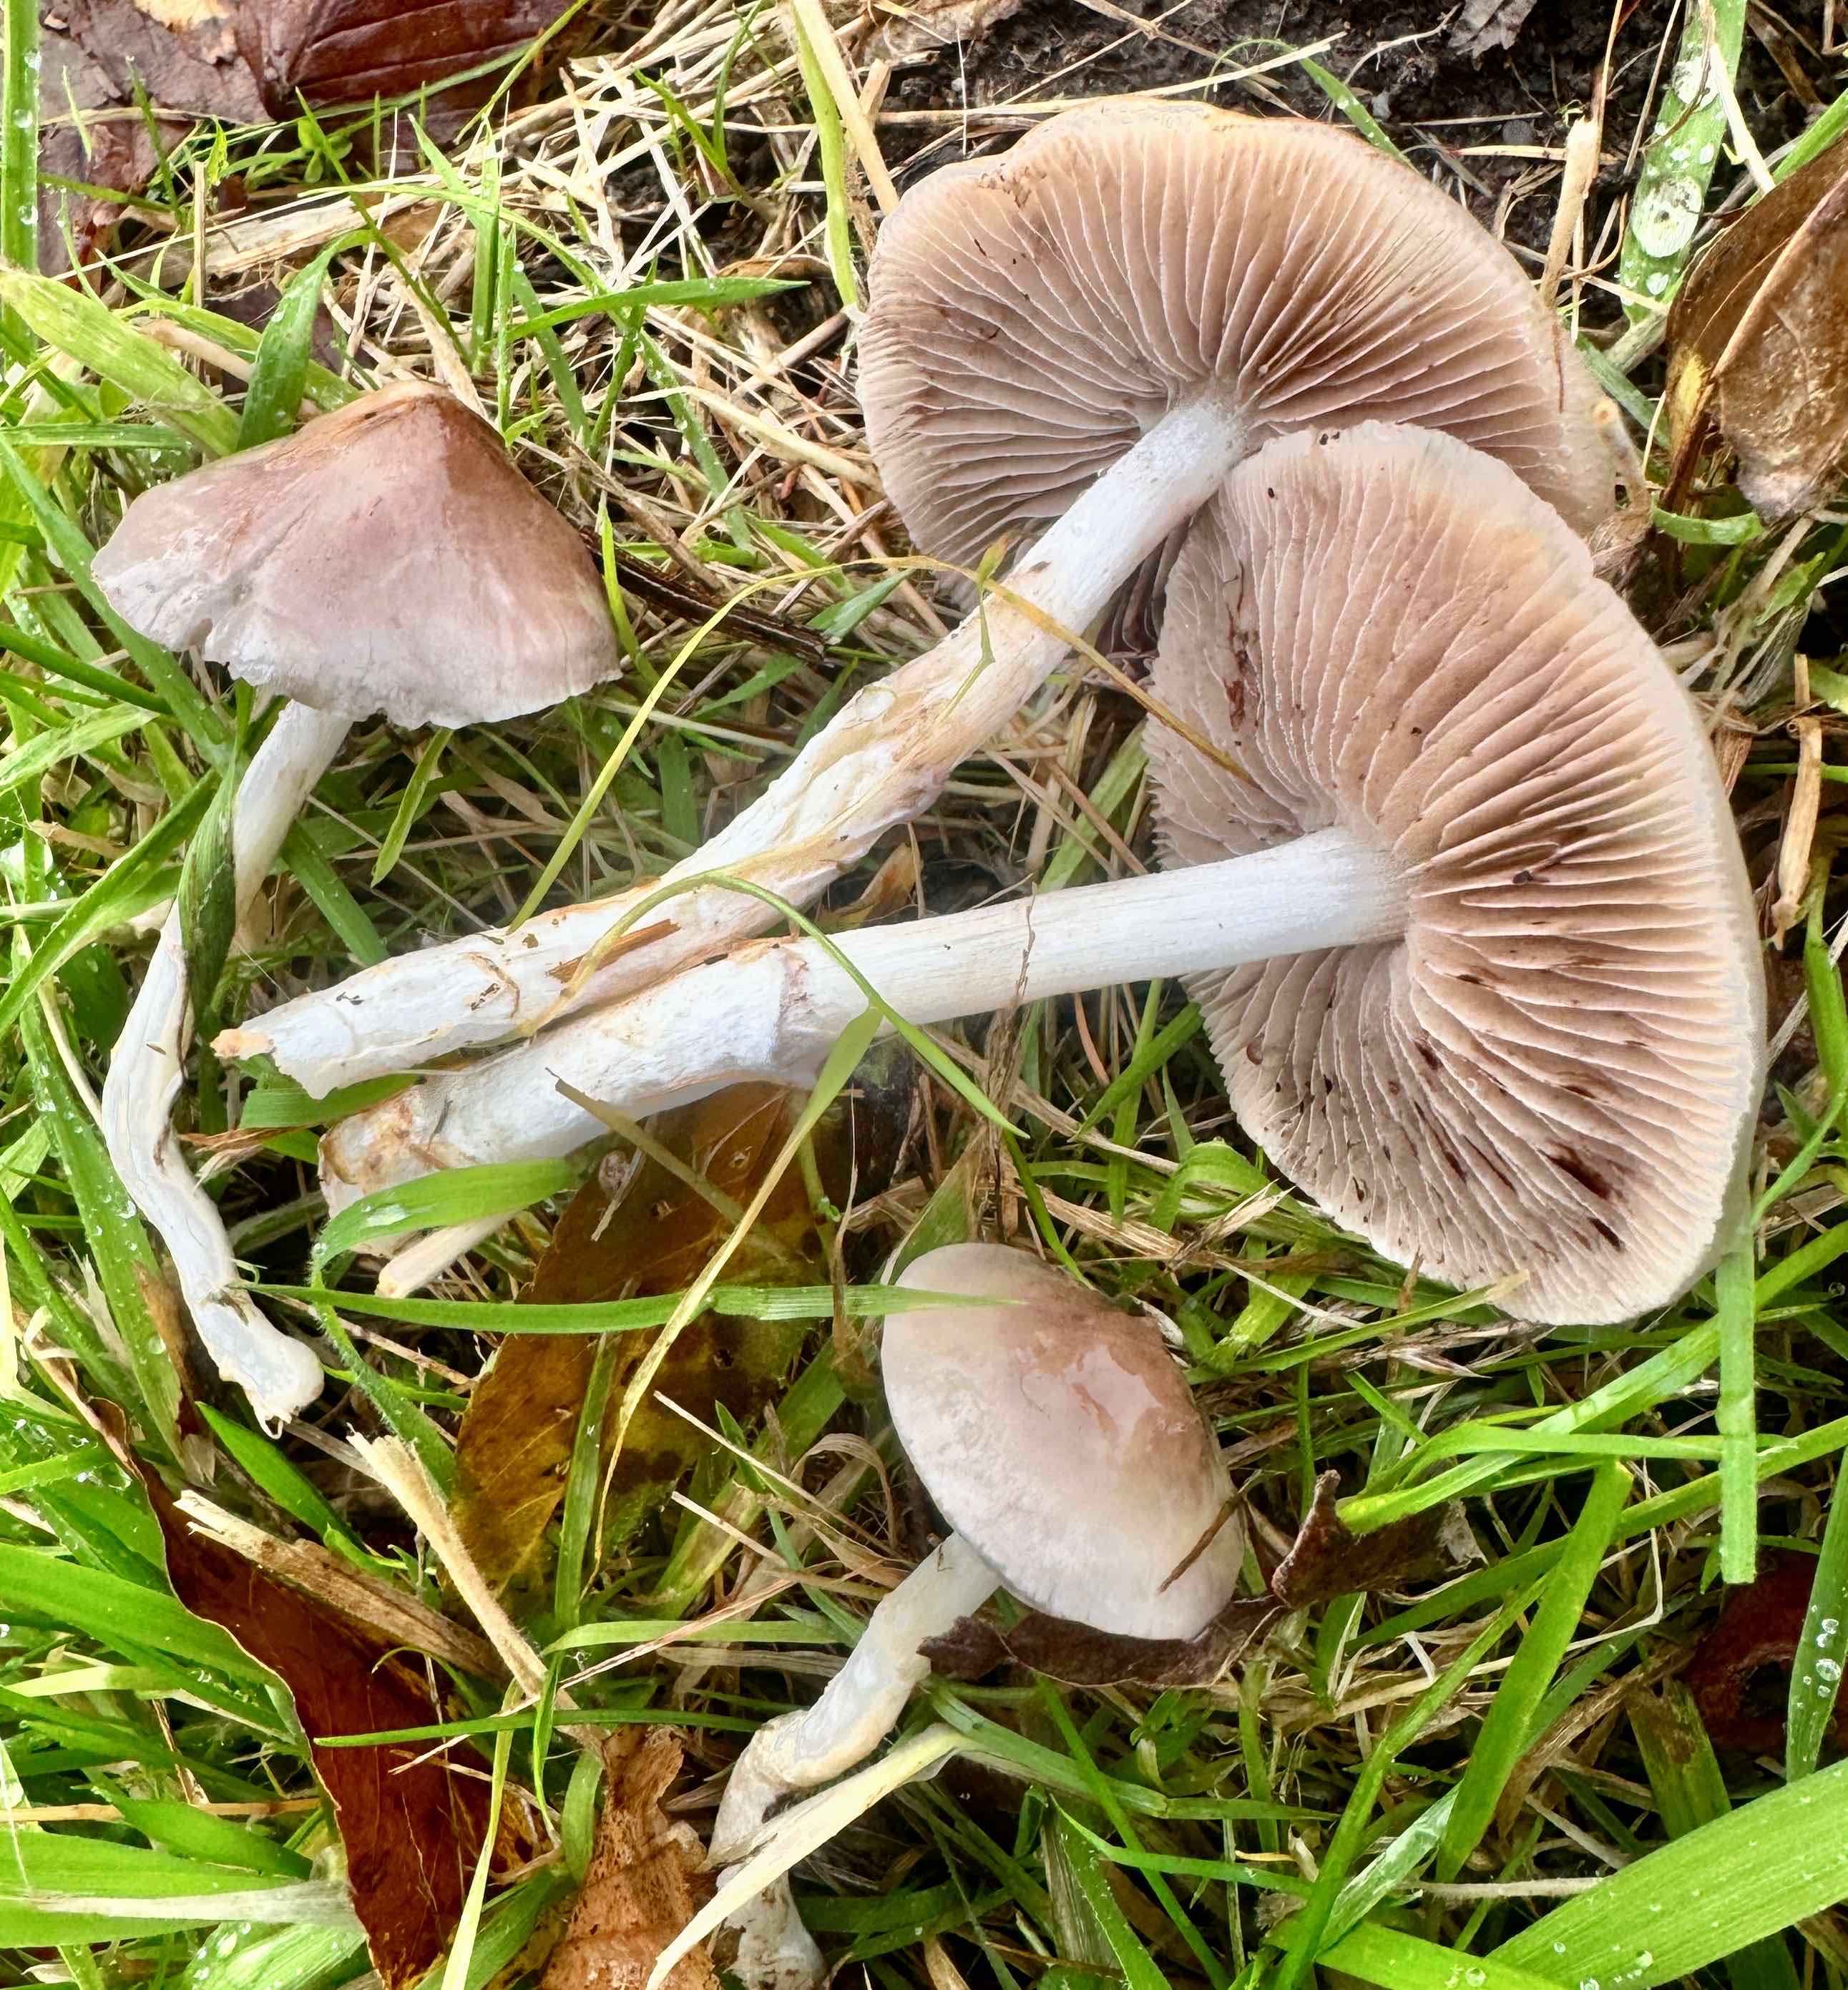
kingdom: Fungi
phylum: Basidiomycota
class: Agaricomycetes
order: Agaricales
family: Strophariaceae
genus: Stropharia
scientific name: Stropharia inuncta
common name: lillabrun bredblad
